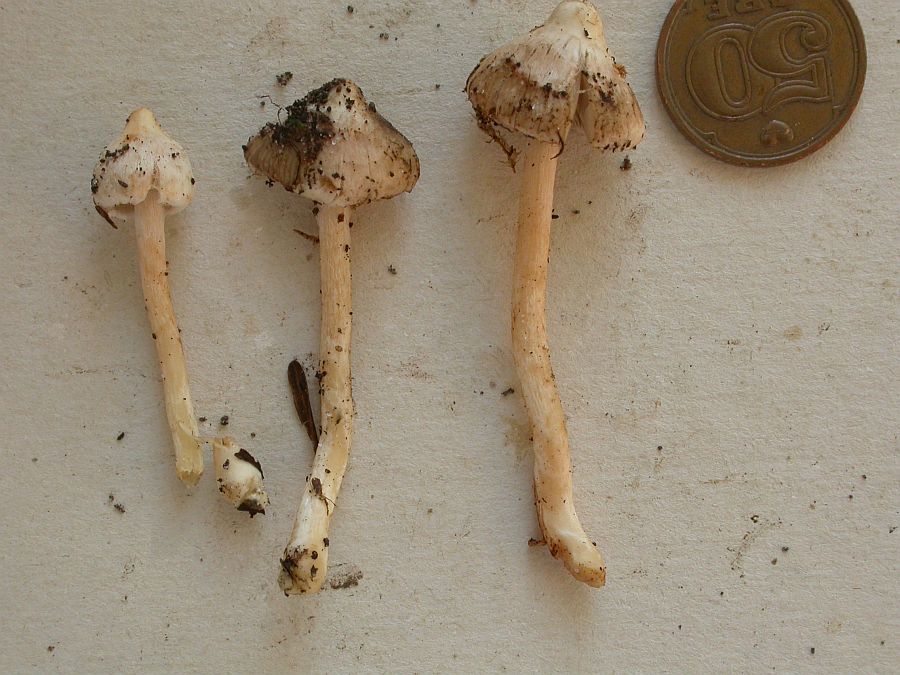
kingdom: Fungi
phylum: Basidiomycota
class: Agaricomycetes
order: Agaricales
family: Inocybaceae
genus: Inocybe
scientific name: Inocybe
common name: trævlhat
